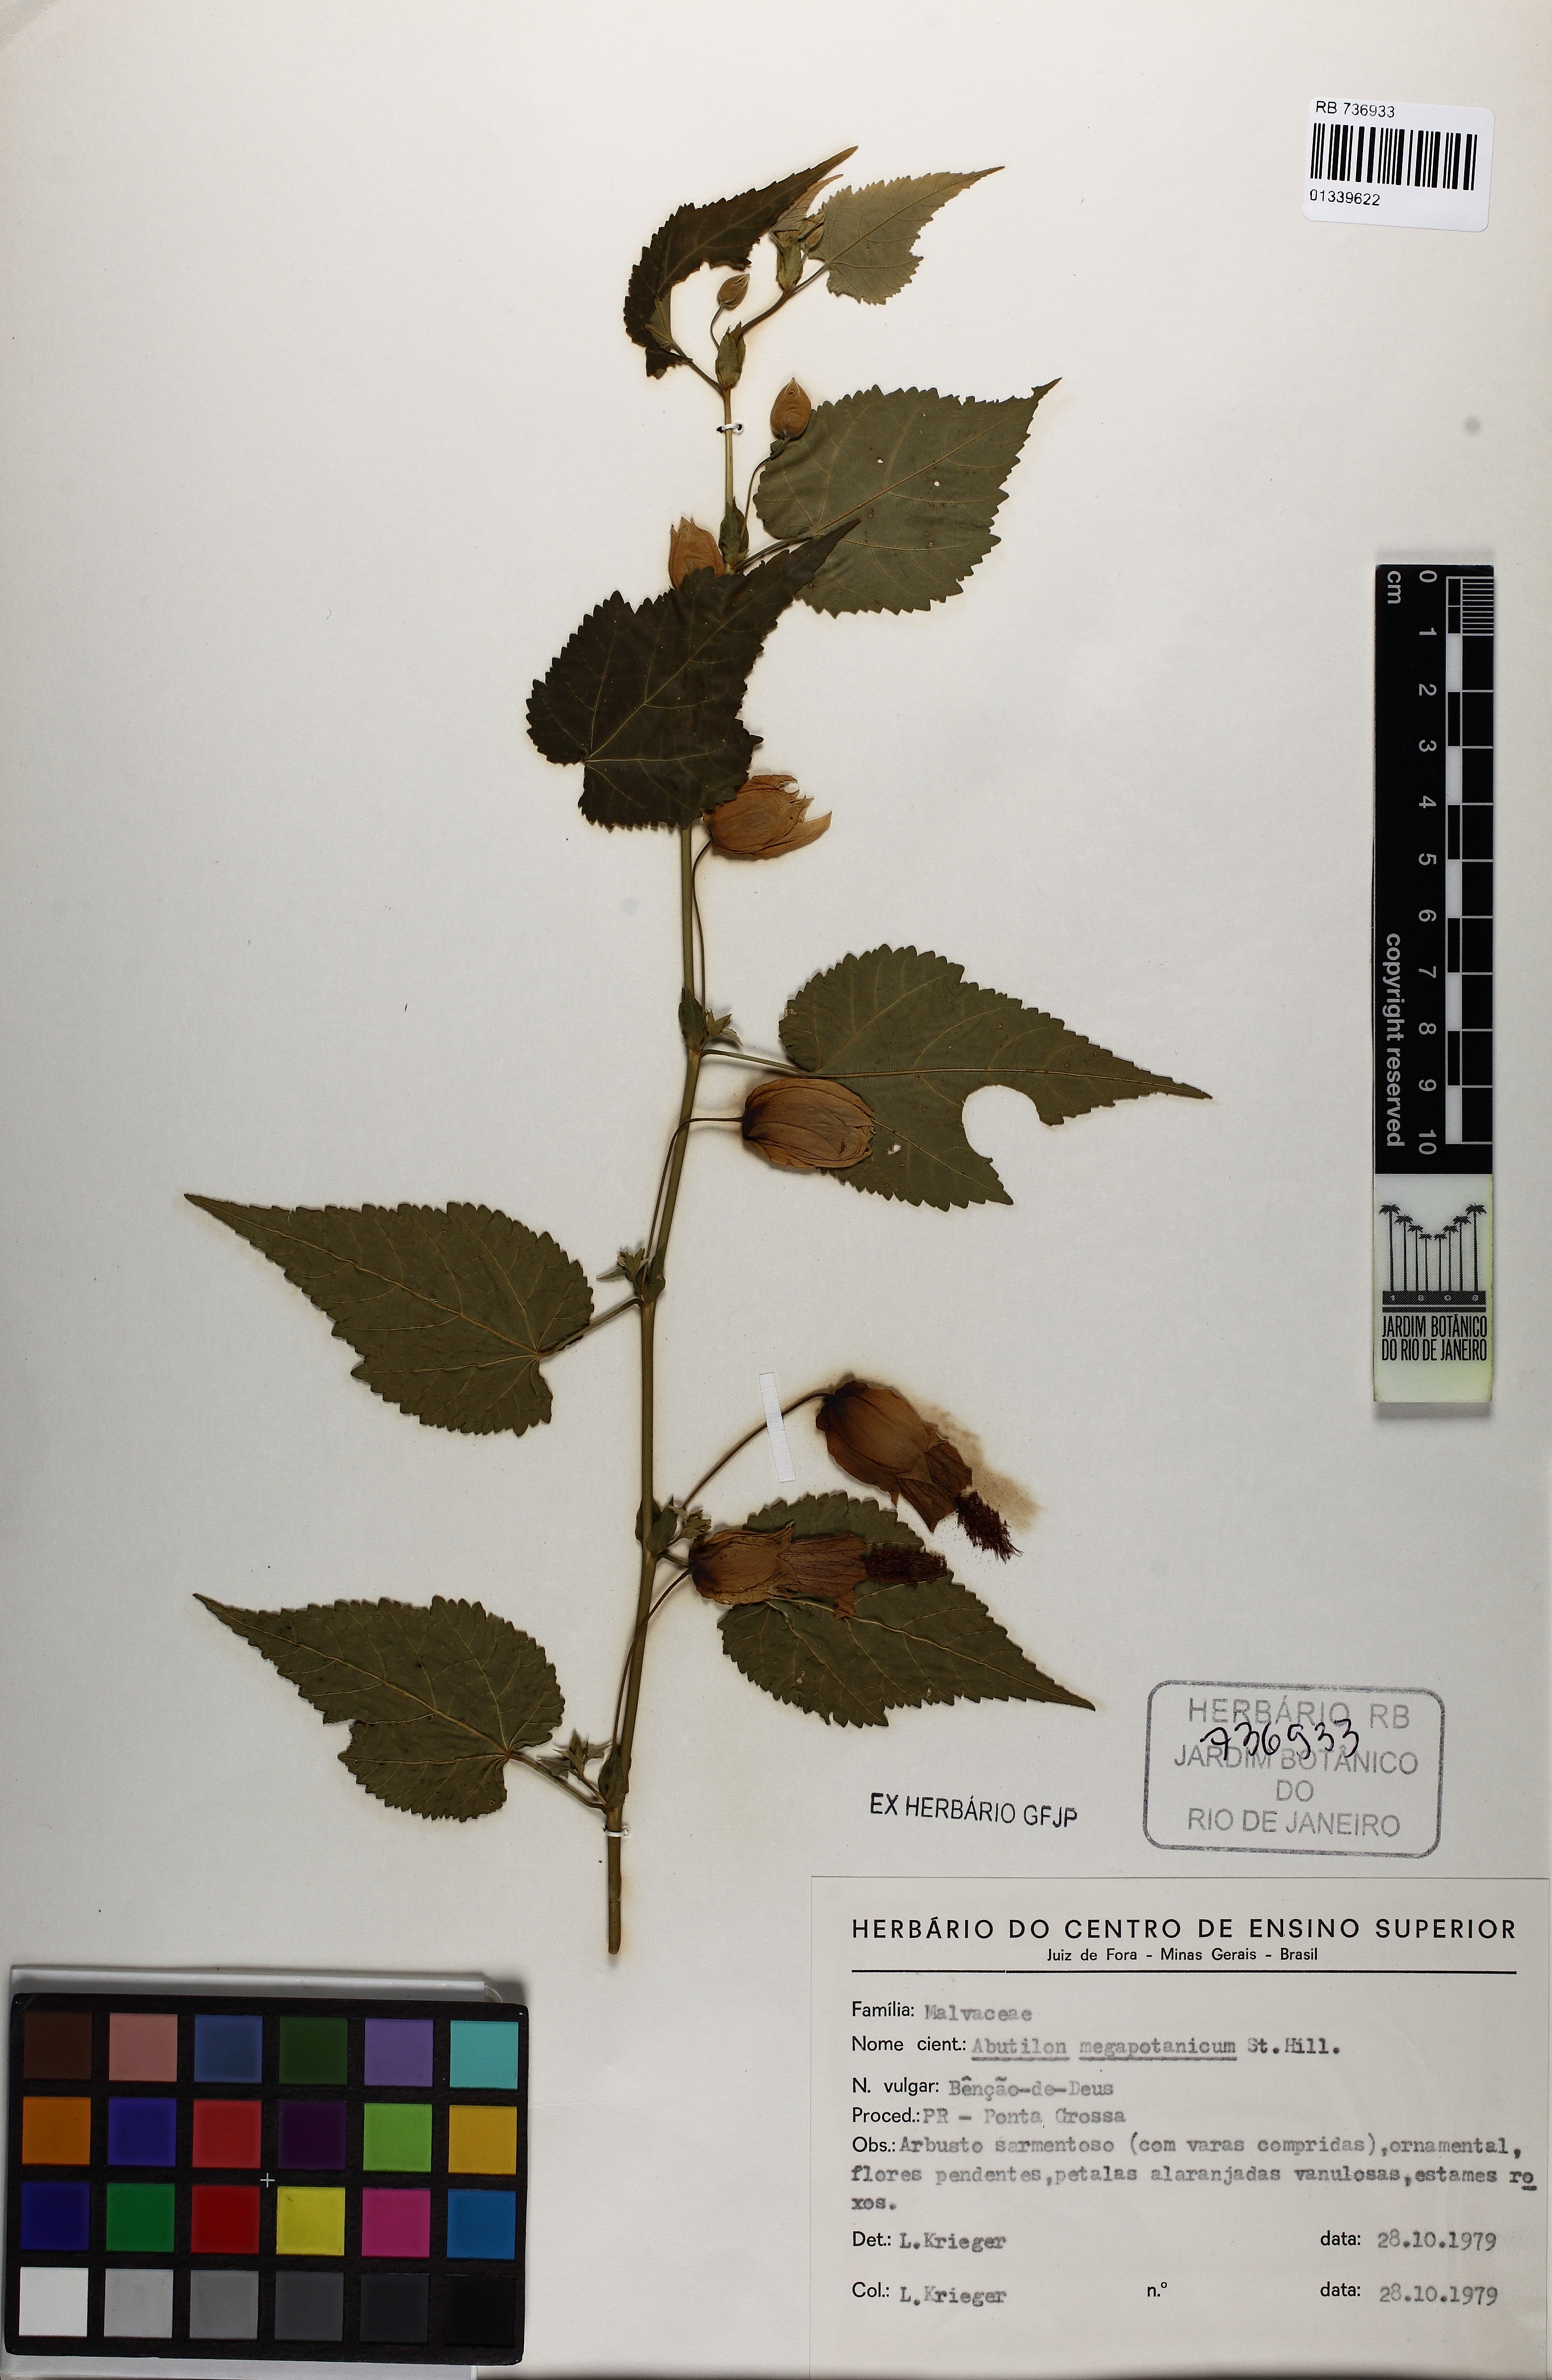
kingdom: Plantae
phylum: Tracheophyta
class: Magnoliopsida
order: Malvales
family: Malvaceae
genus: Callianthe
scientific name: Callianthe megapotamica
